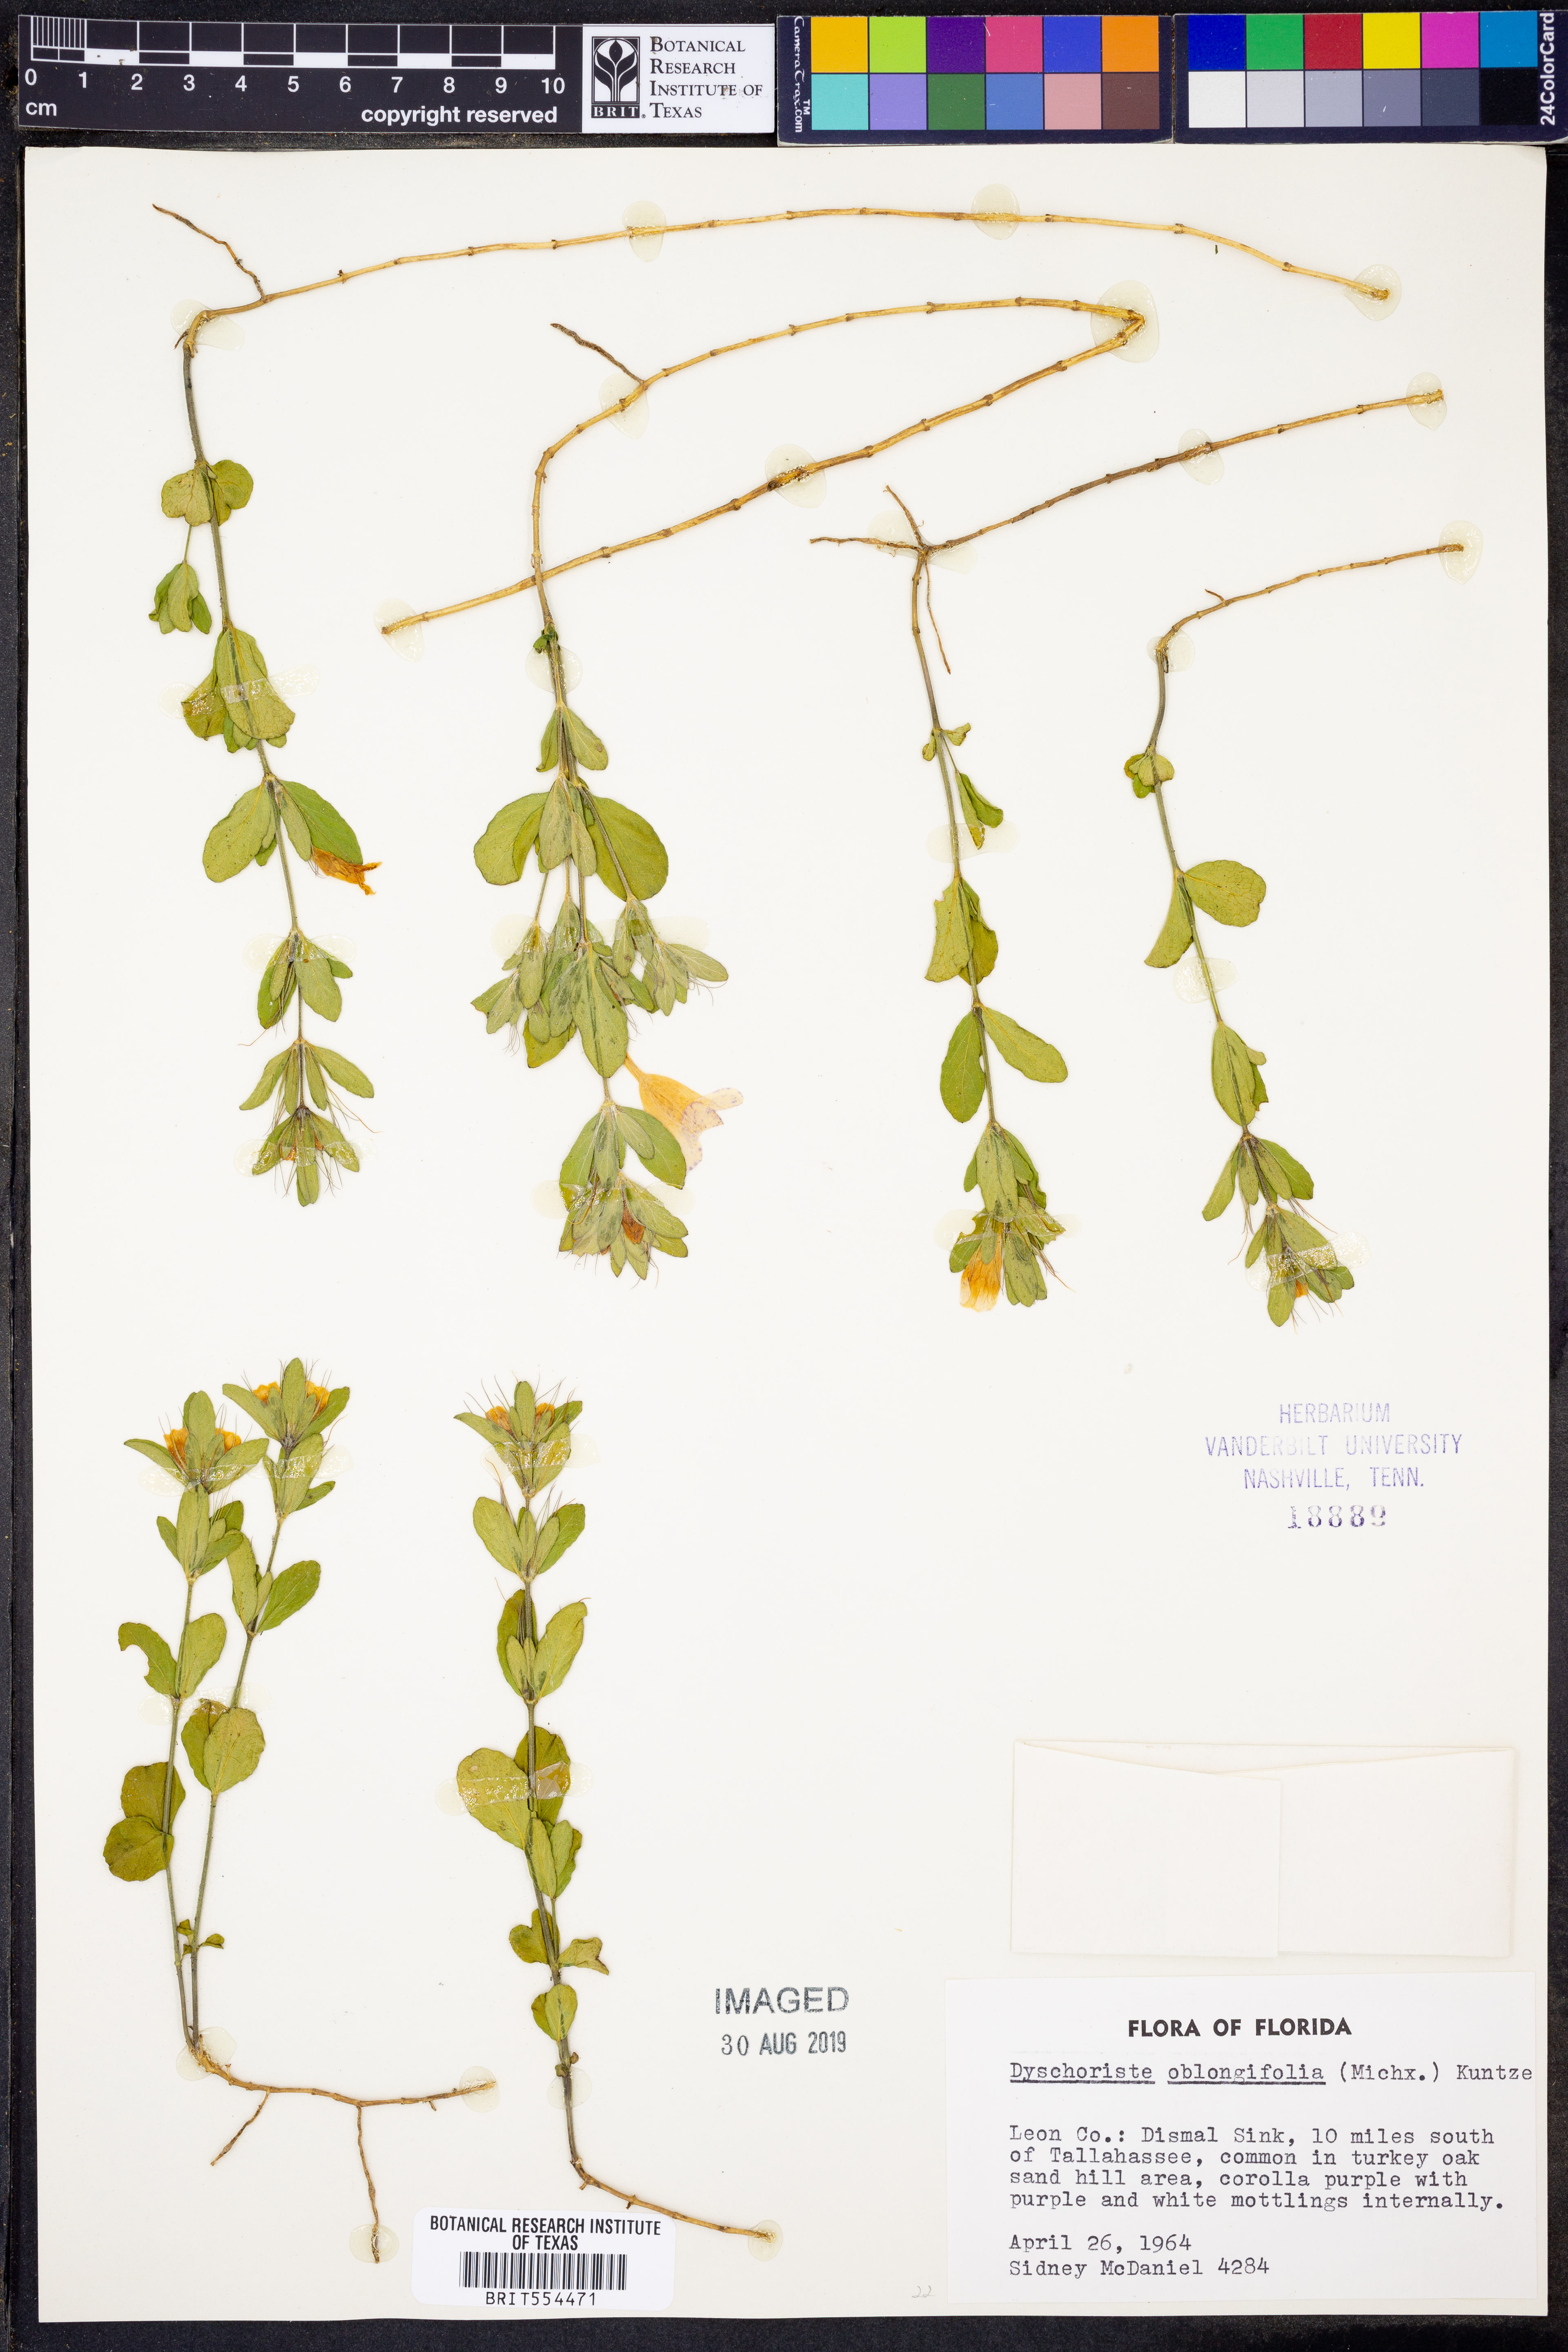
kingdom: Plantae
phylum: Tracheophyta
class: Magnoliopsida
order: Lamiales
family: Acanthaceae
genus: Dyschoriste
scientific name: Dyschoriste oblongifolia
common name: Blue twinflower
